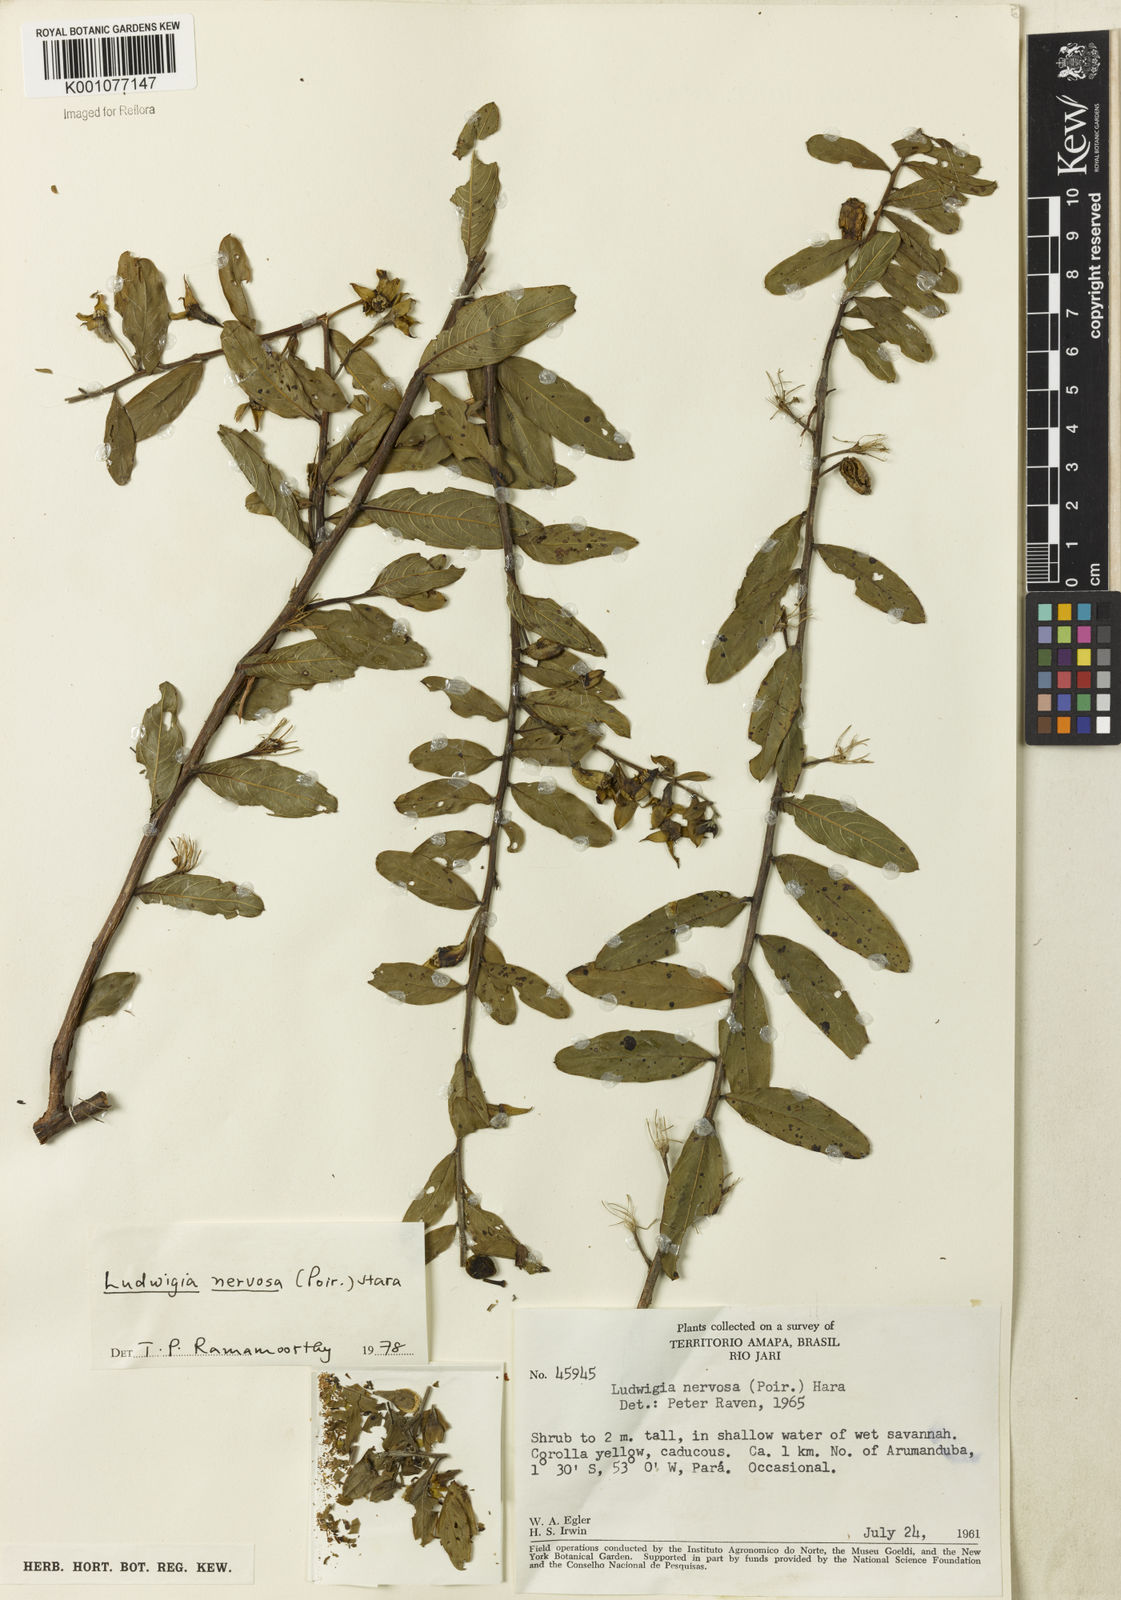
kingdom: Plantae
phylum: Tracheophyta
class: Magnoliopsida
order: Myrtales
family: Onagraceae
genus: Ludwigia
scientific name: Ludwigia nervosa
